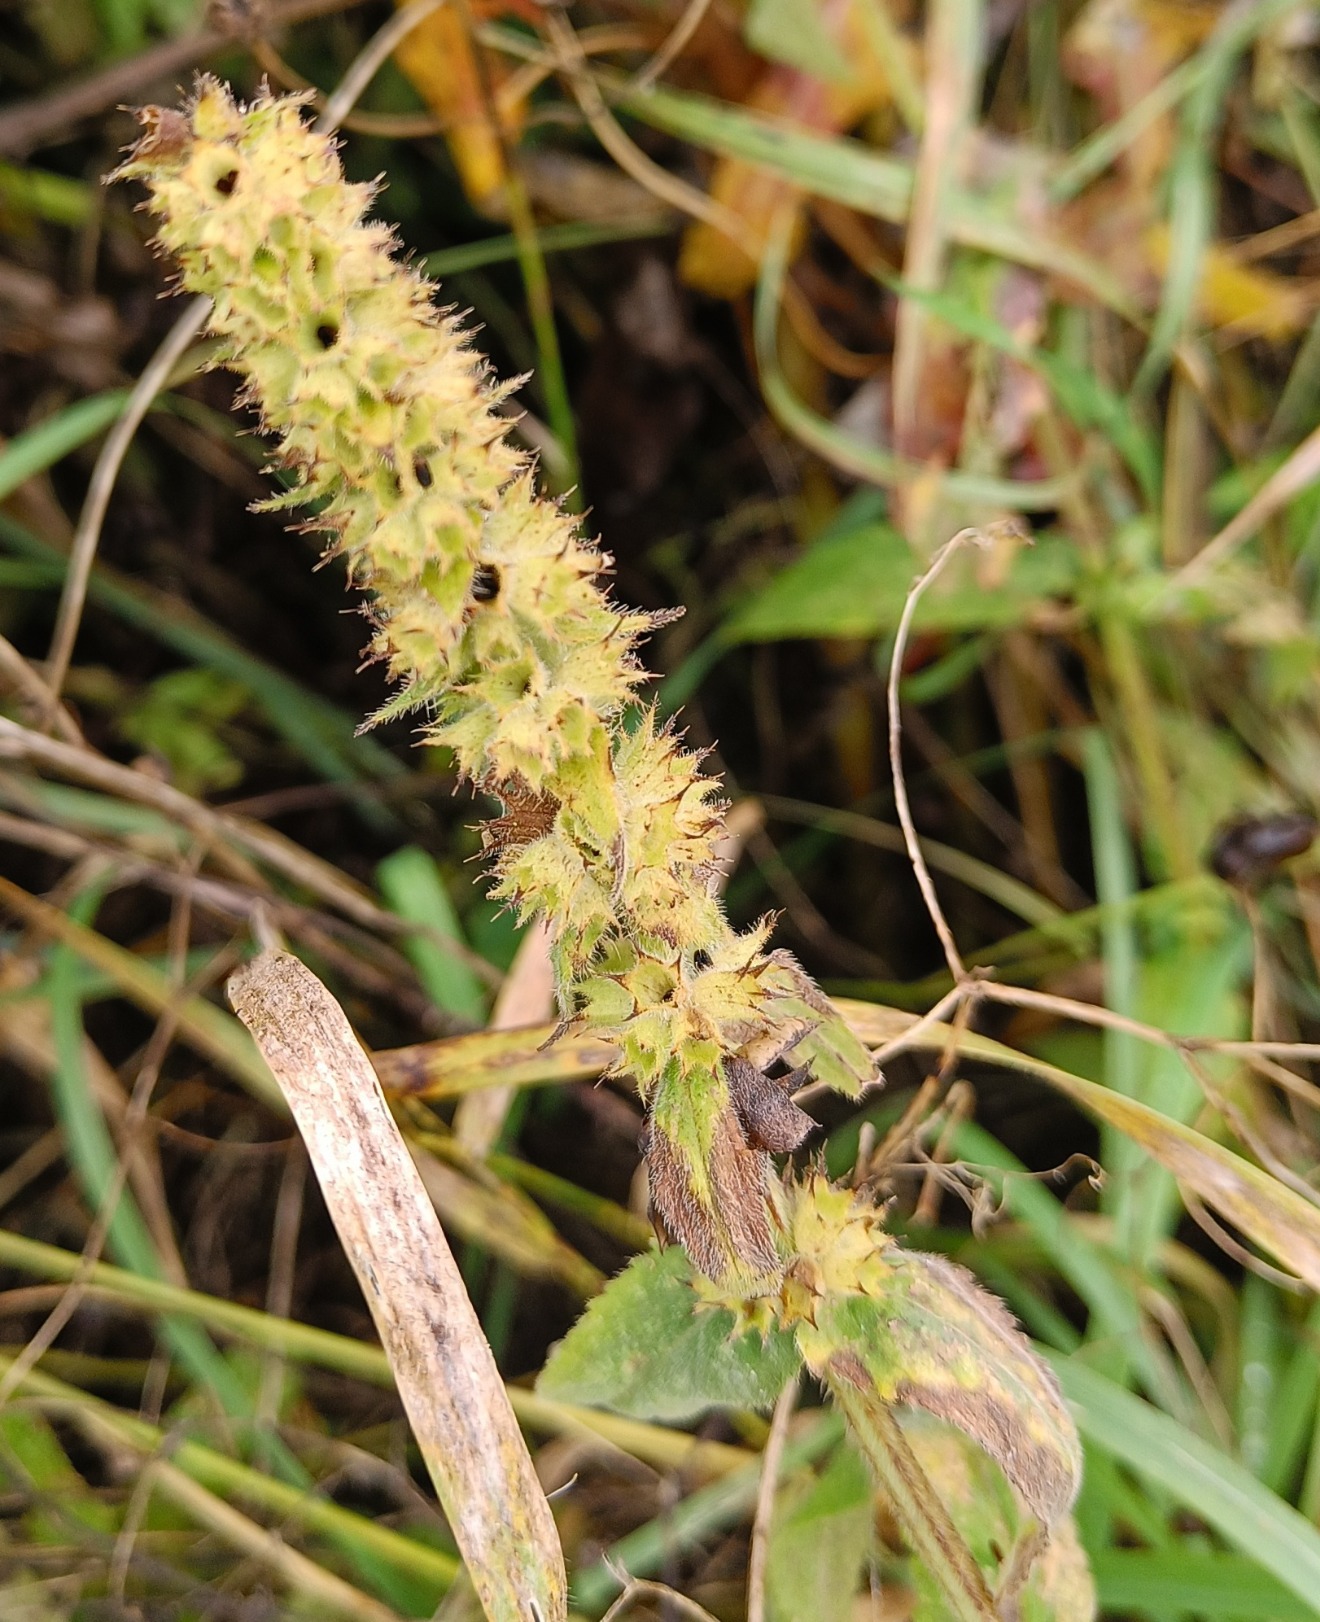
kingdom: Plantae
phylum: Tracheophyta
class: Magnoliopsida
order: Lamiales
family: Lamiaceae
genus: Stachys
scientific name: Stachys palustris
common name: Kær-galtetand
